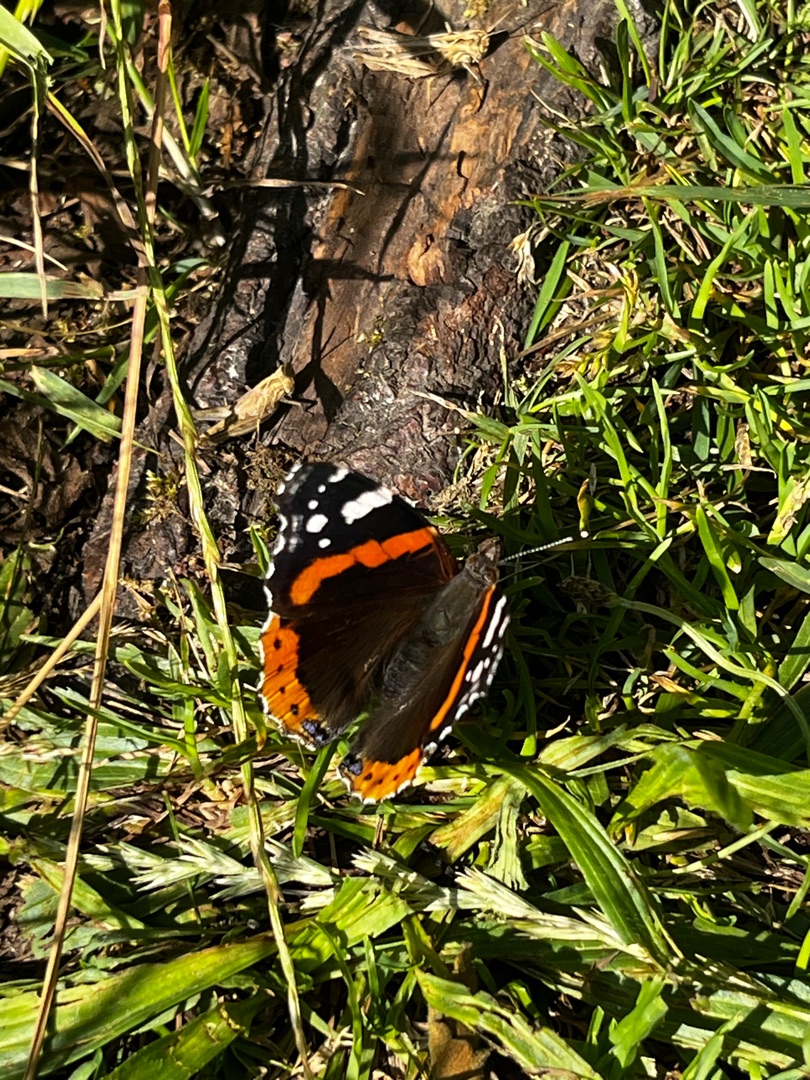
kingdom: Animalia
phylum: Arthropoda
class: Insecta
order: Lepidoptera
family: Nymphalidae
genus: Vanessa
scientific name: Vanessa atalanta
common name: Admiral
